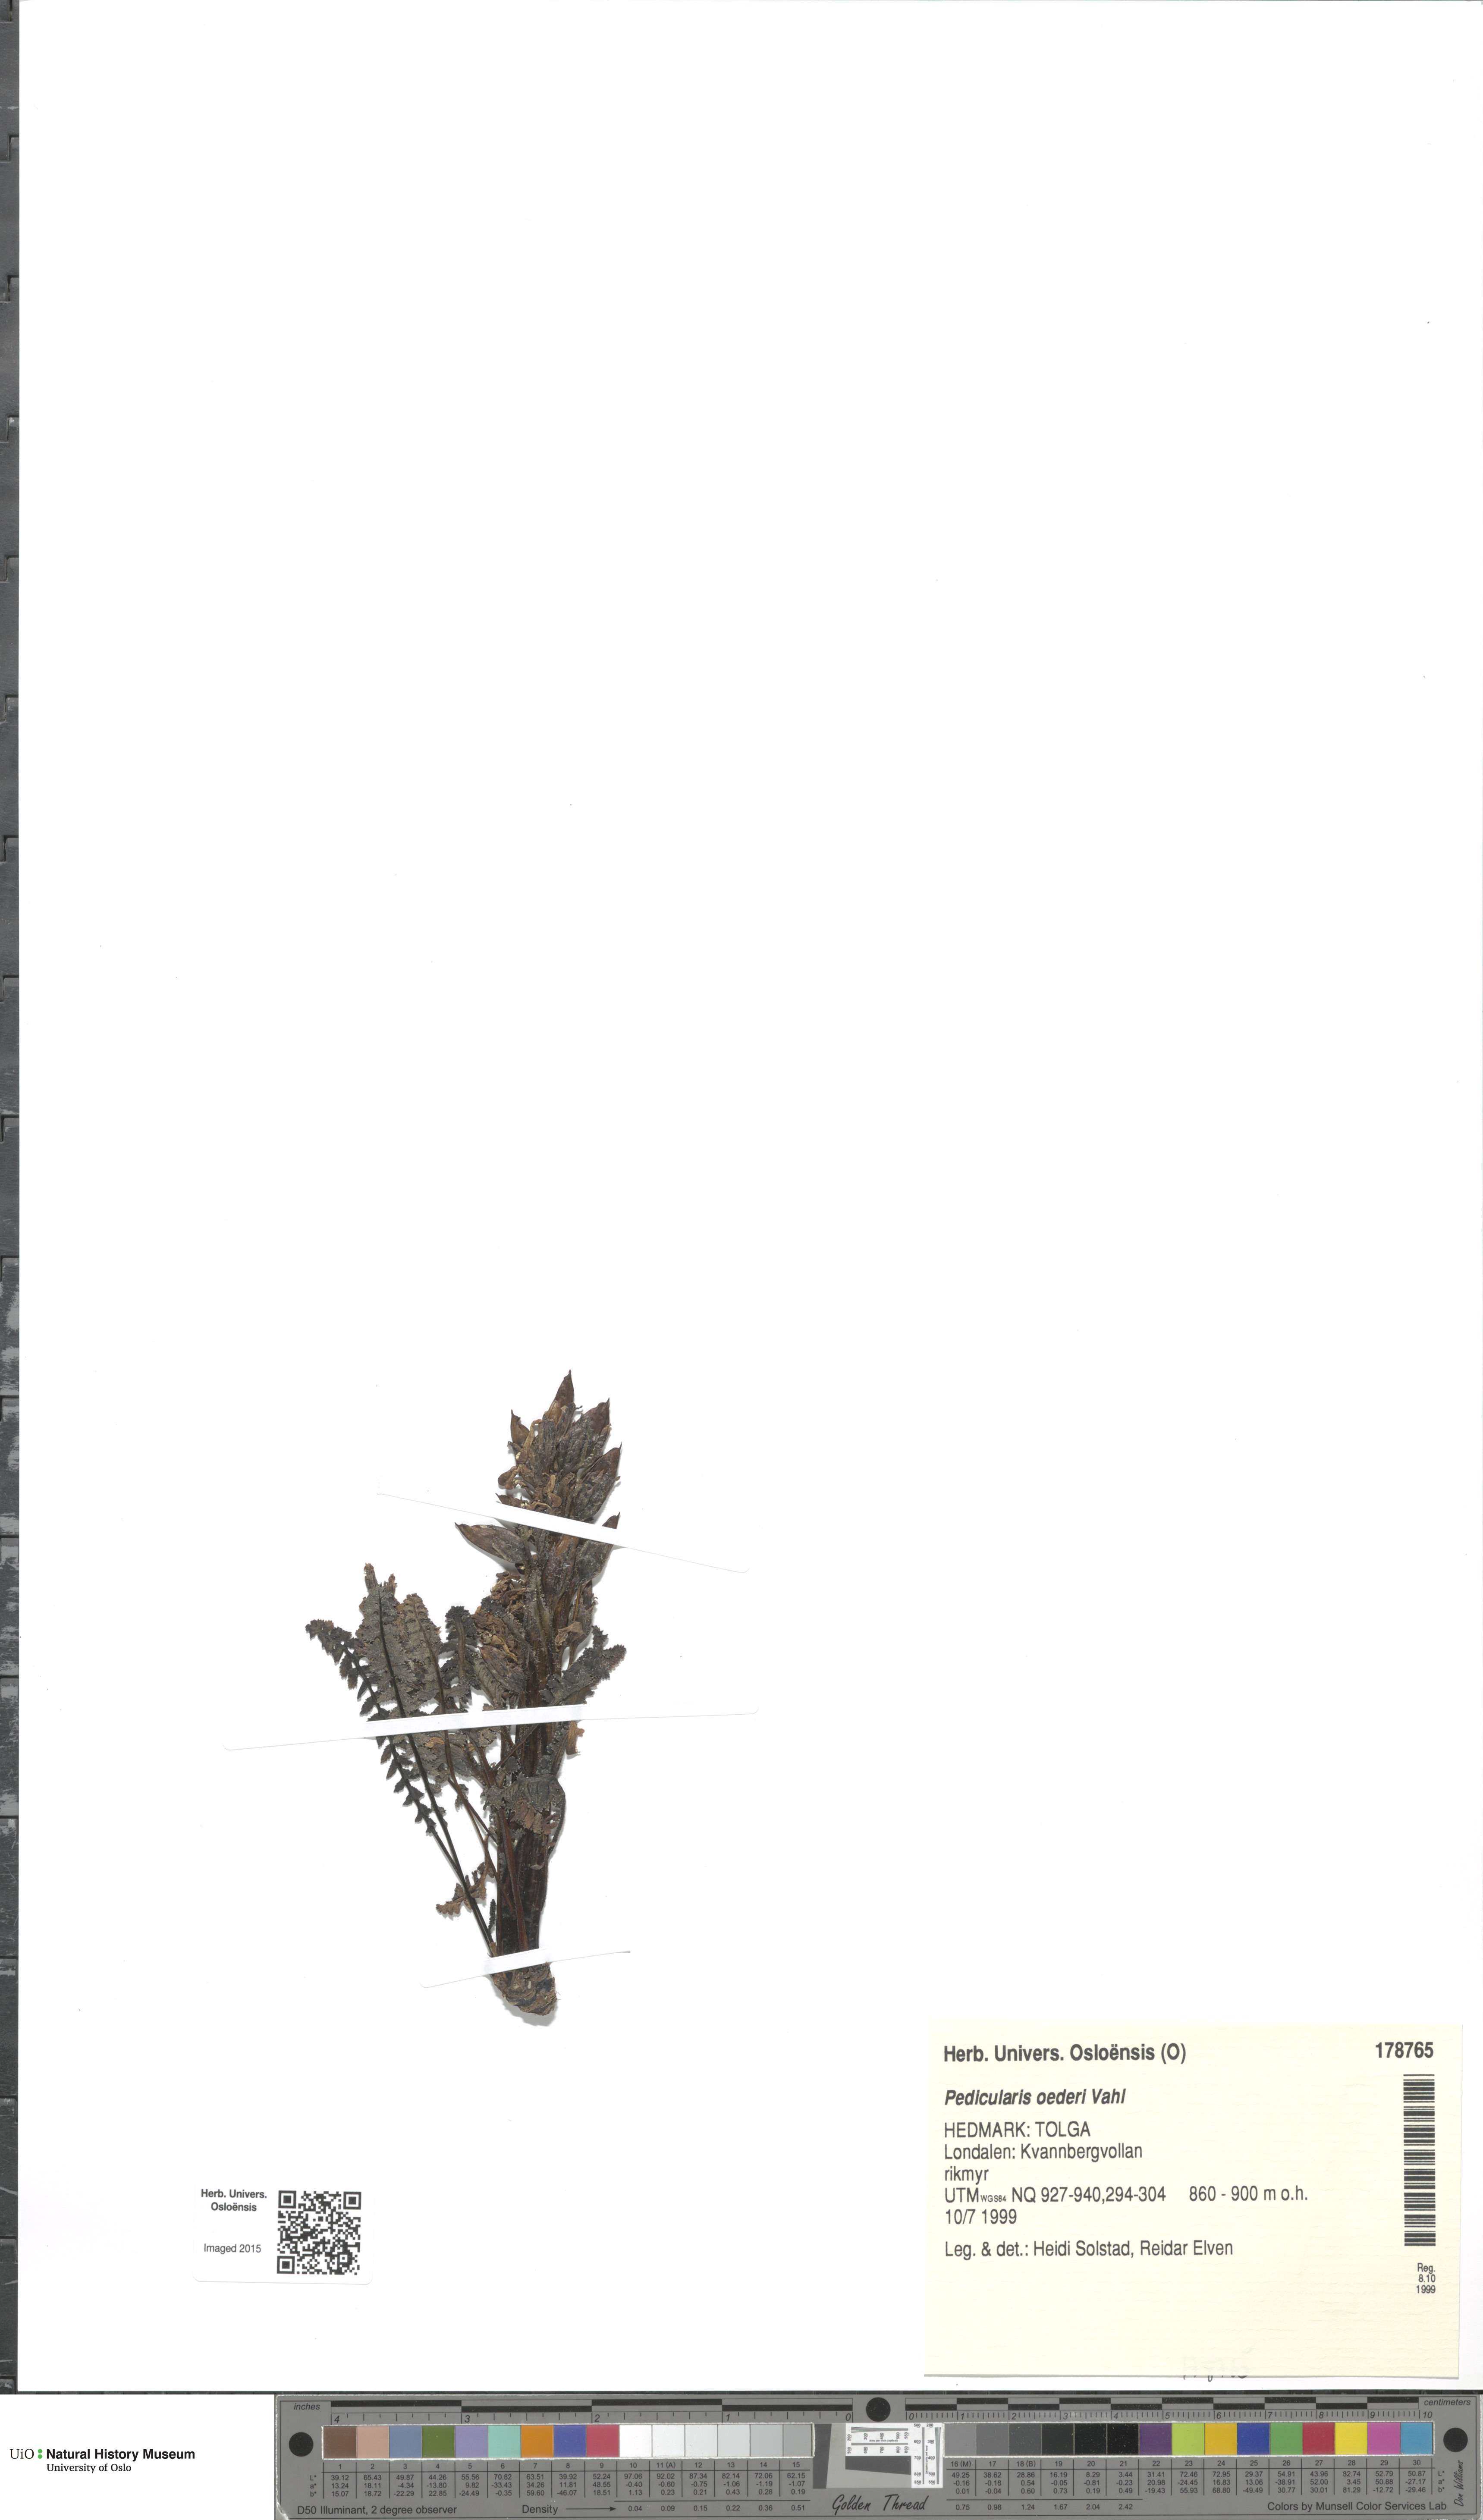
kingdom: Plantae
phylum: Tracheophyta
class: Magnoliopsida
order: Lamiales
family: Orobanchaceae
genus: Pedicularis
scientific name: Pedicularis oederi
